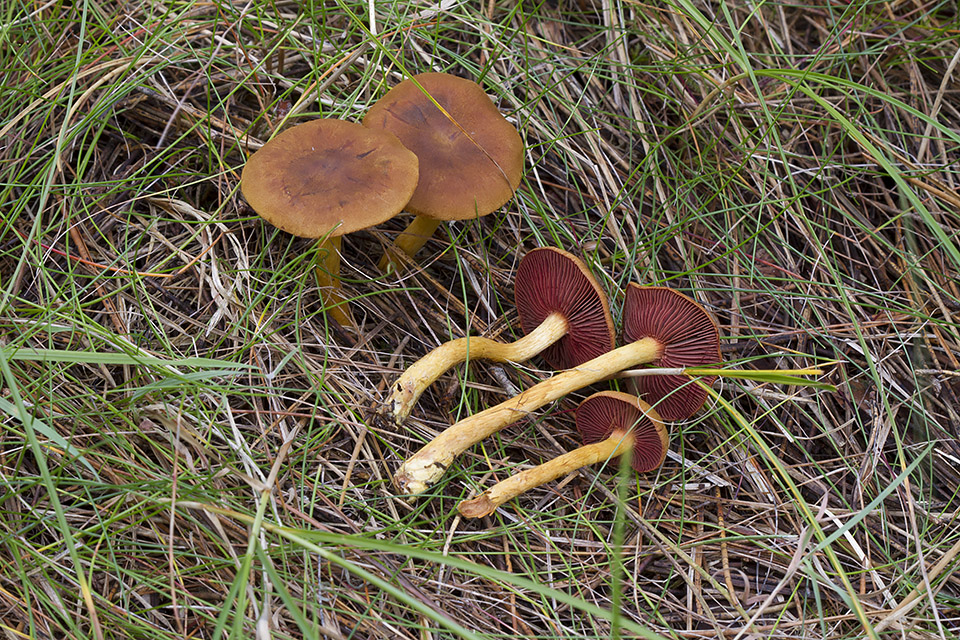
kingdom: Fungi
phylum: Basidiomycota
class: Agaricomycetes
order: Agaricales
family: Cortinariaceae
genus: Cortinarius
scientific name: Cortinarius
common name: cinnoberbladet slørhat
